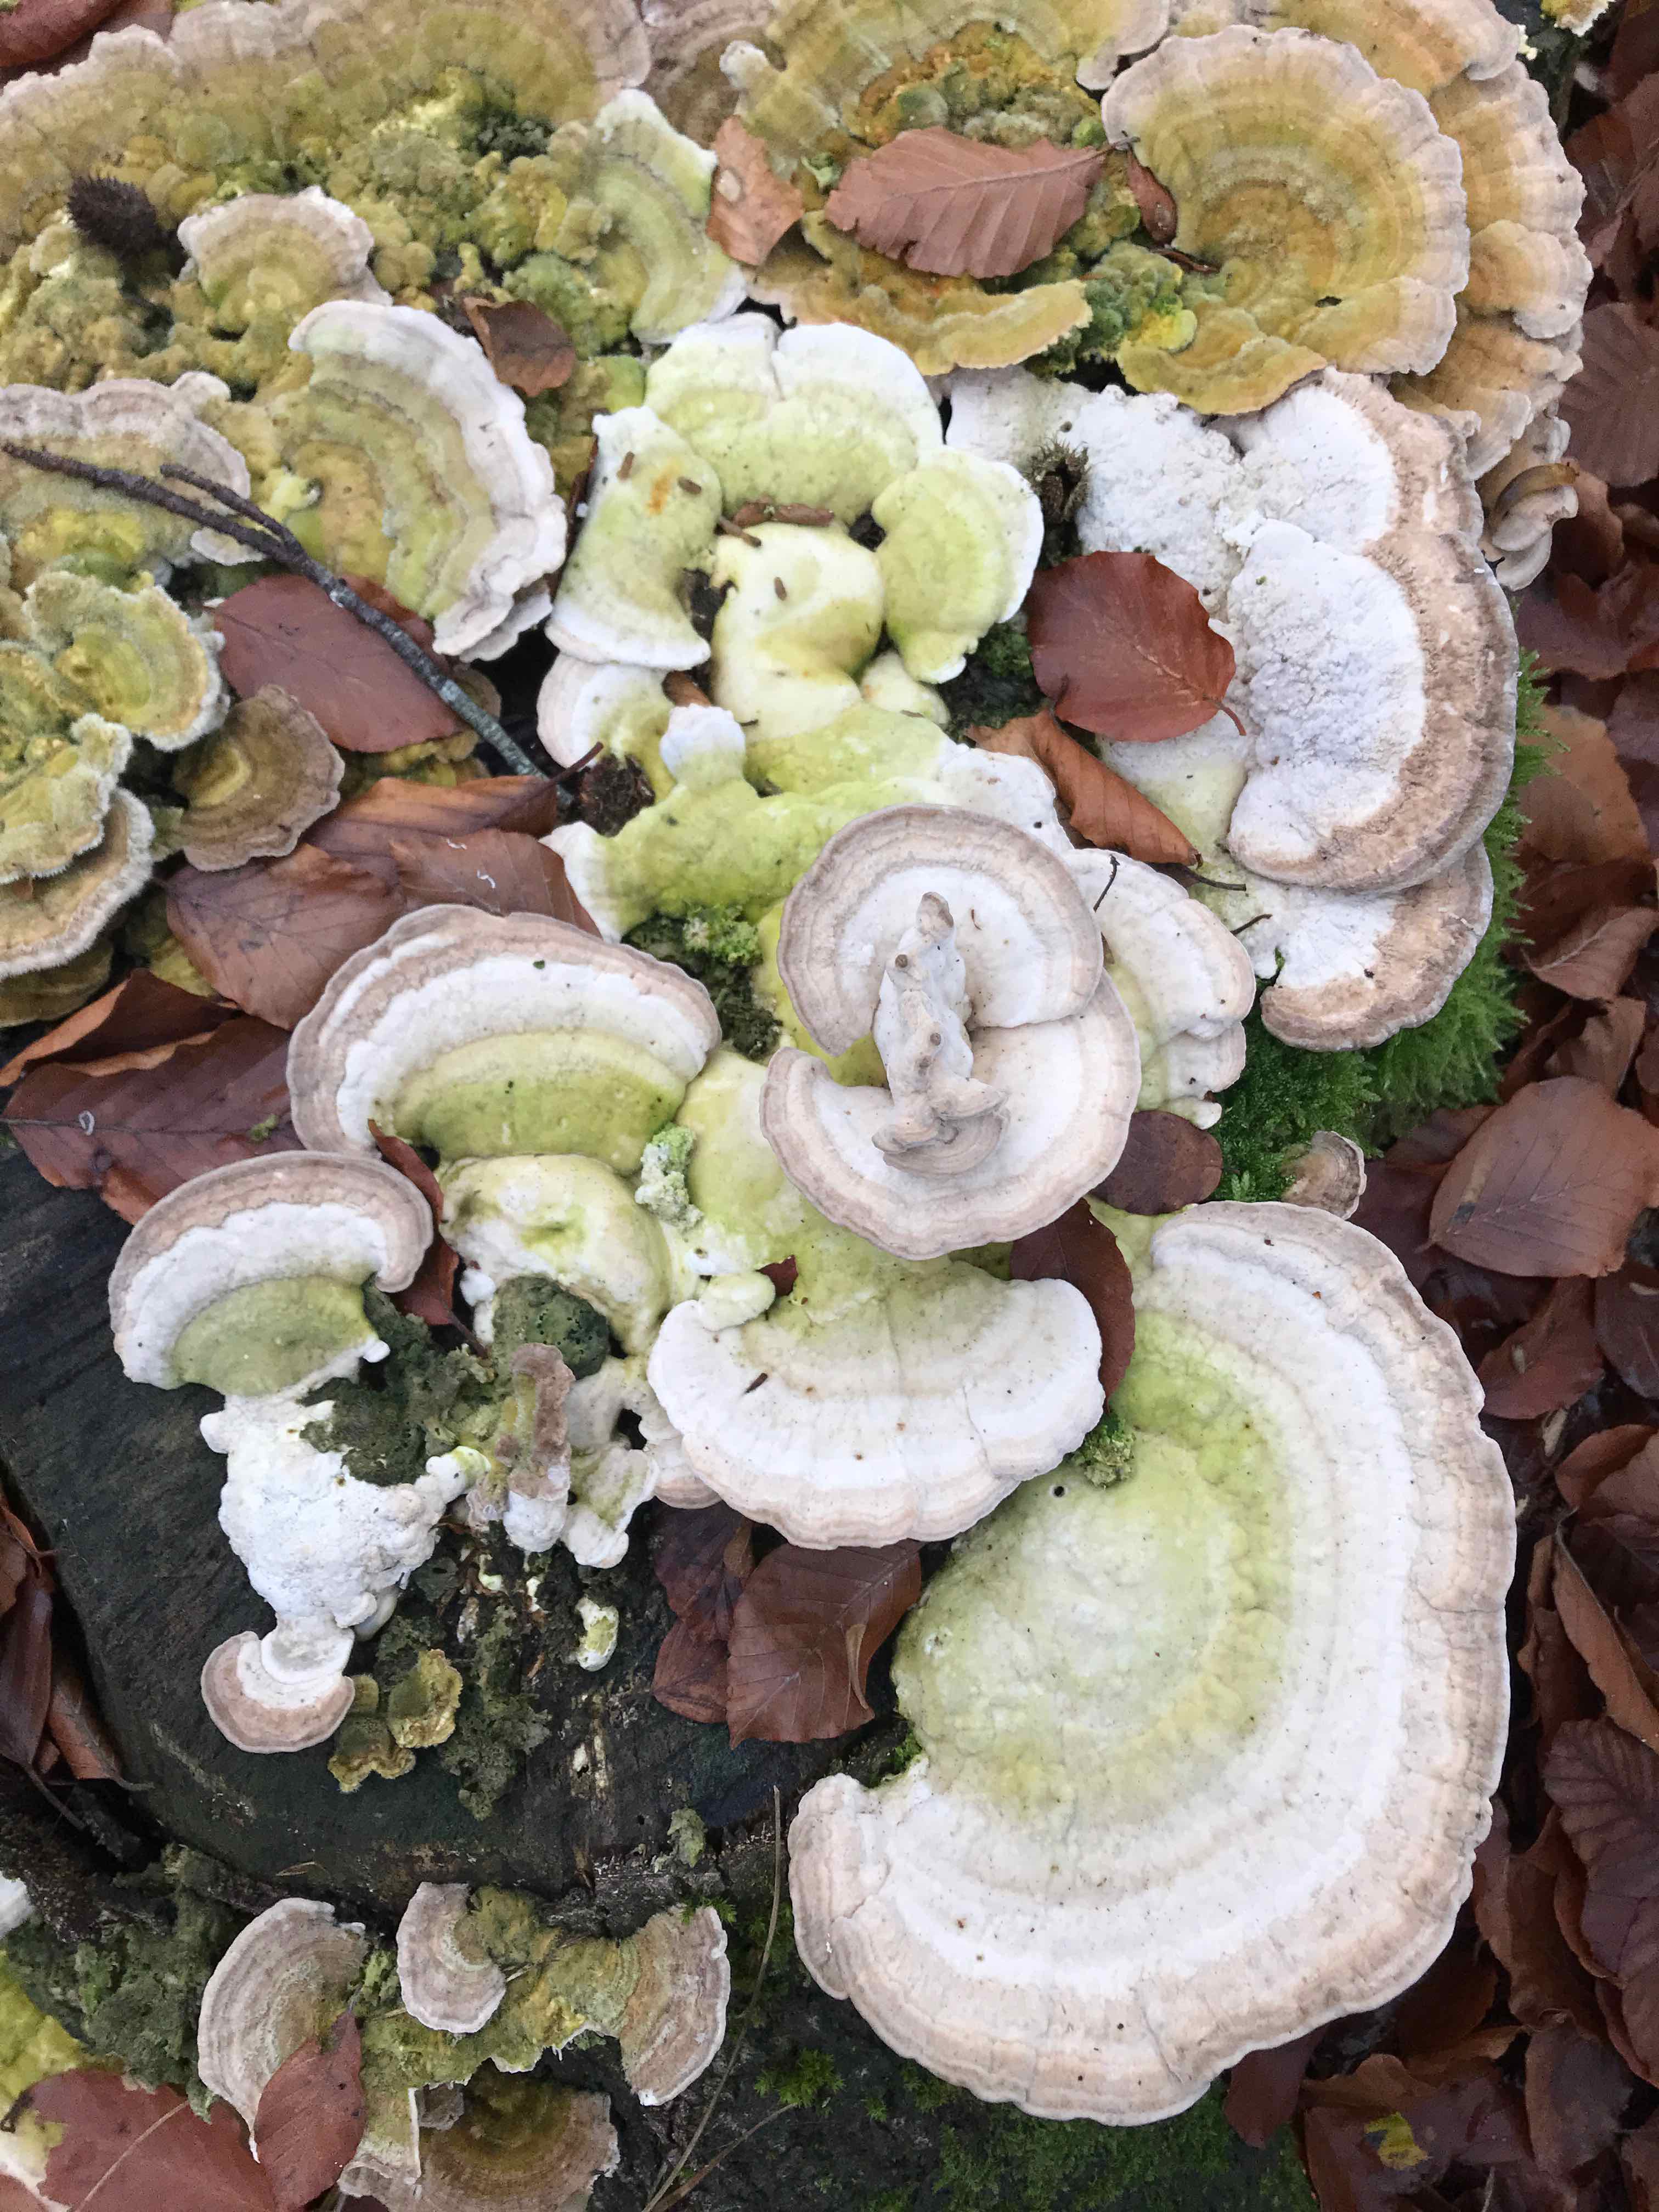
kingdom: Fungi
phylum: Basidiomycota
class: Agaricomycetes
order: Polyporales
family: Polyporaceae
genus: Trametes
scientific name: Trametes gibbosa
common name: puklet læderporesvamp
